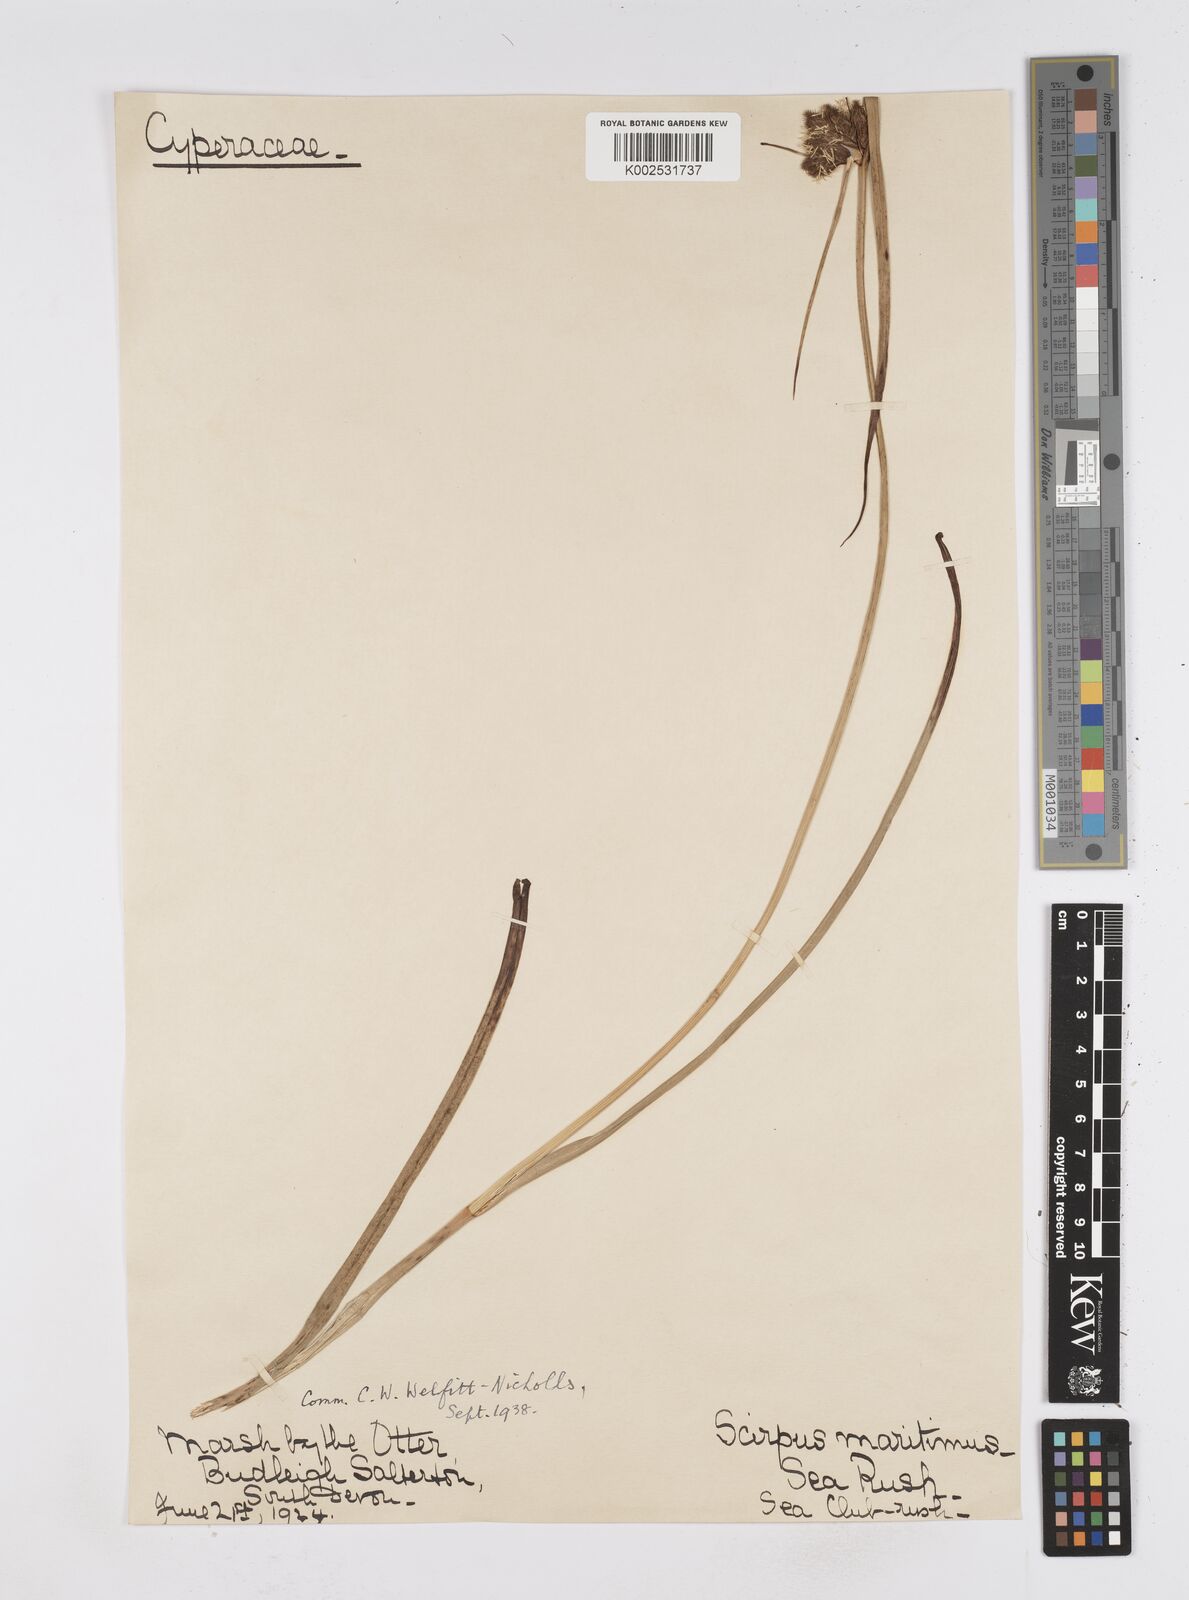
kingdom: Plantae
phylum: Tracheophyta
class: Liliopsida
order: Poales
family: Cyperaceae
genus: Bolboschoenus
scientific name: Bolboschoenus maritimus
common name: Sea club-rush
